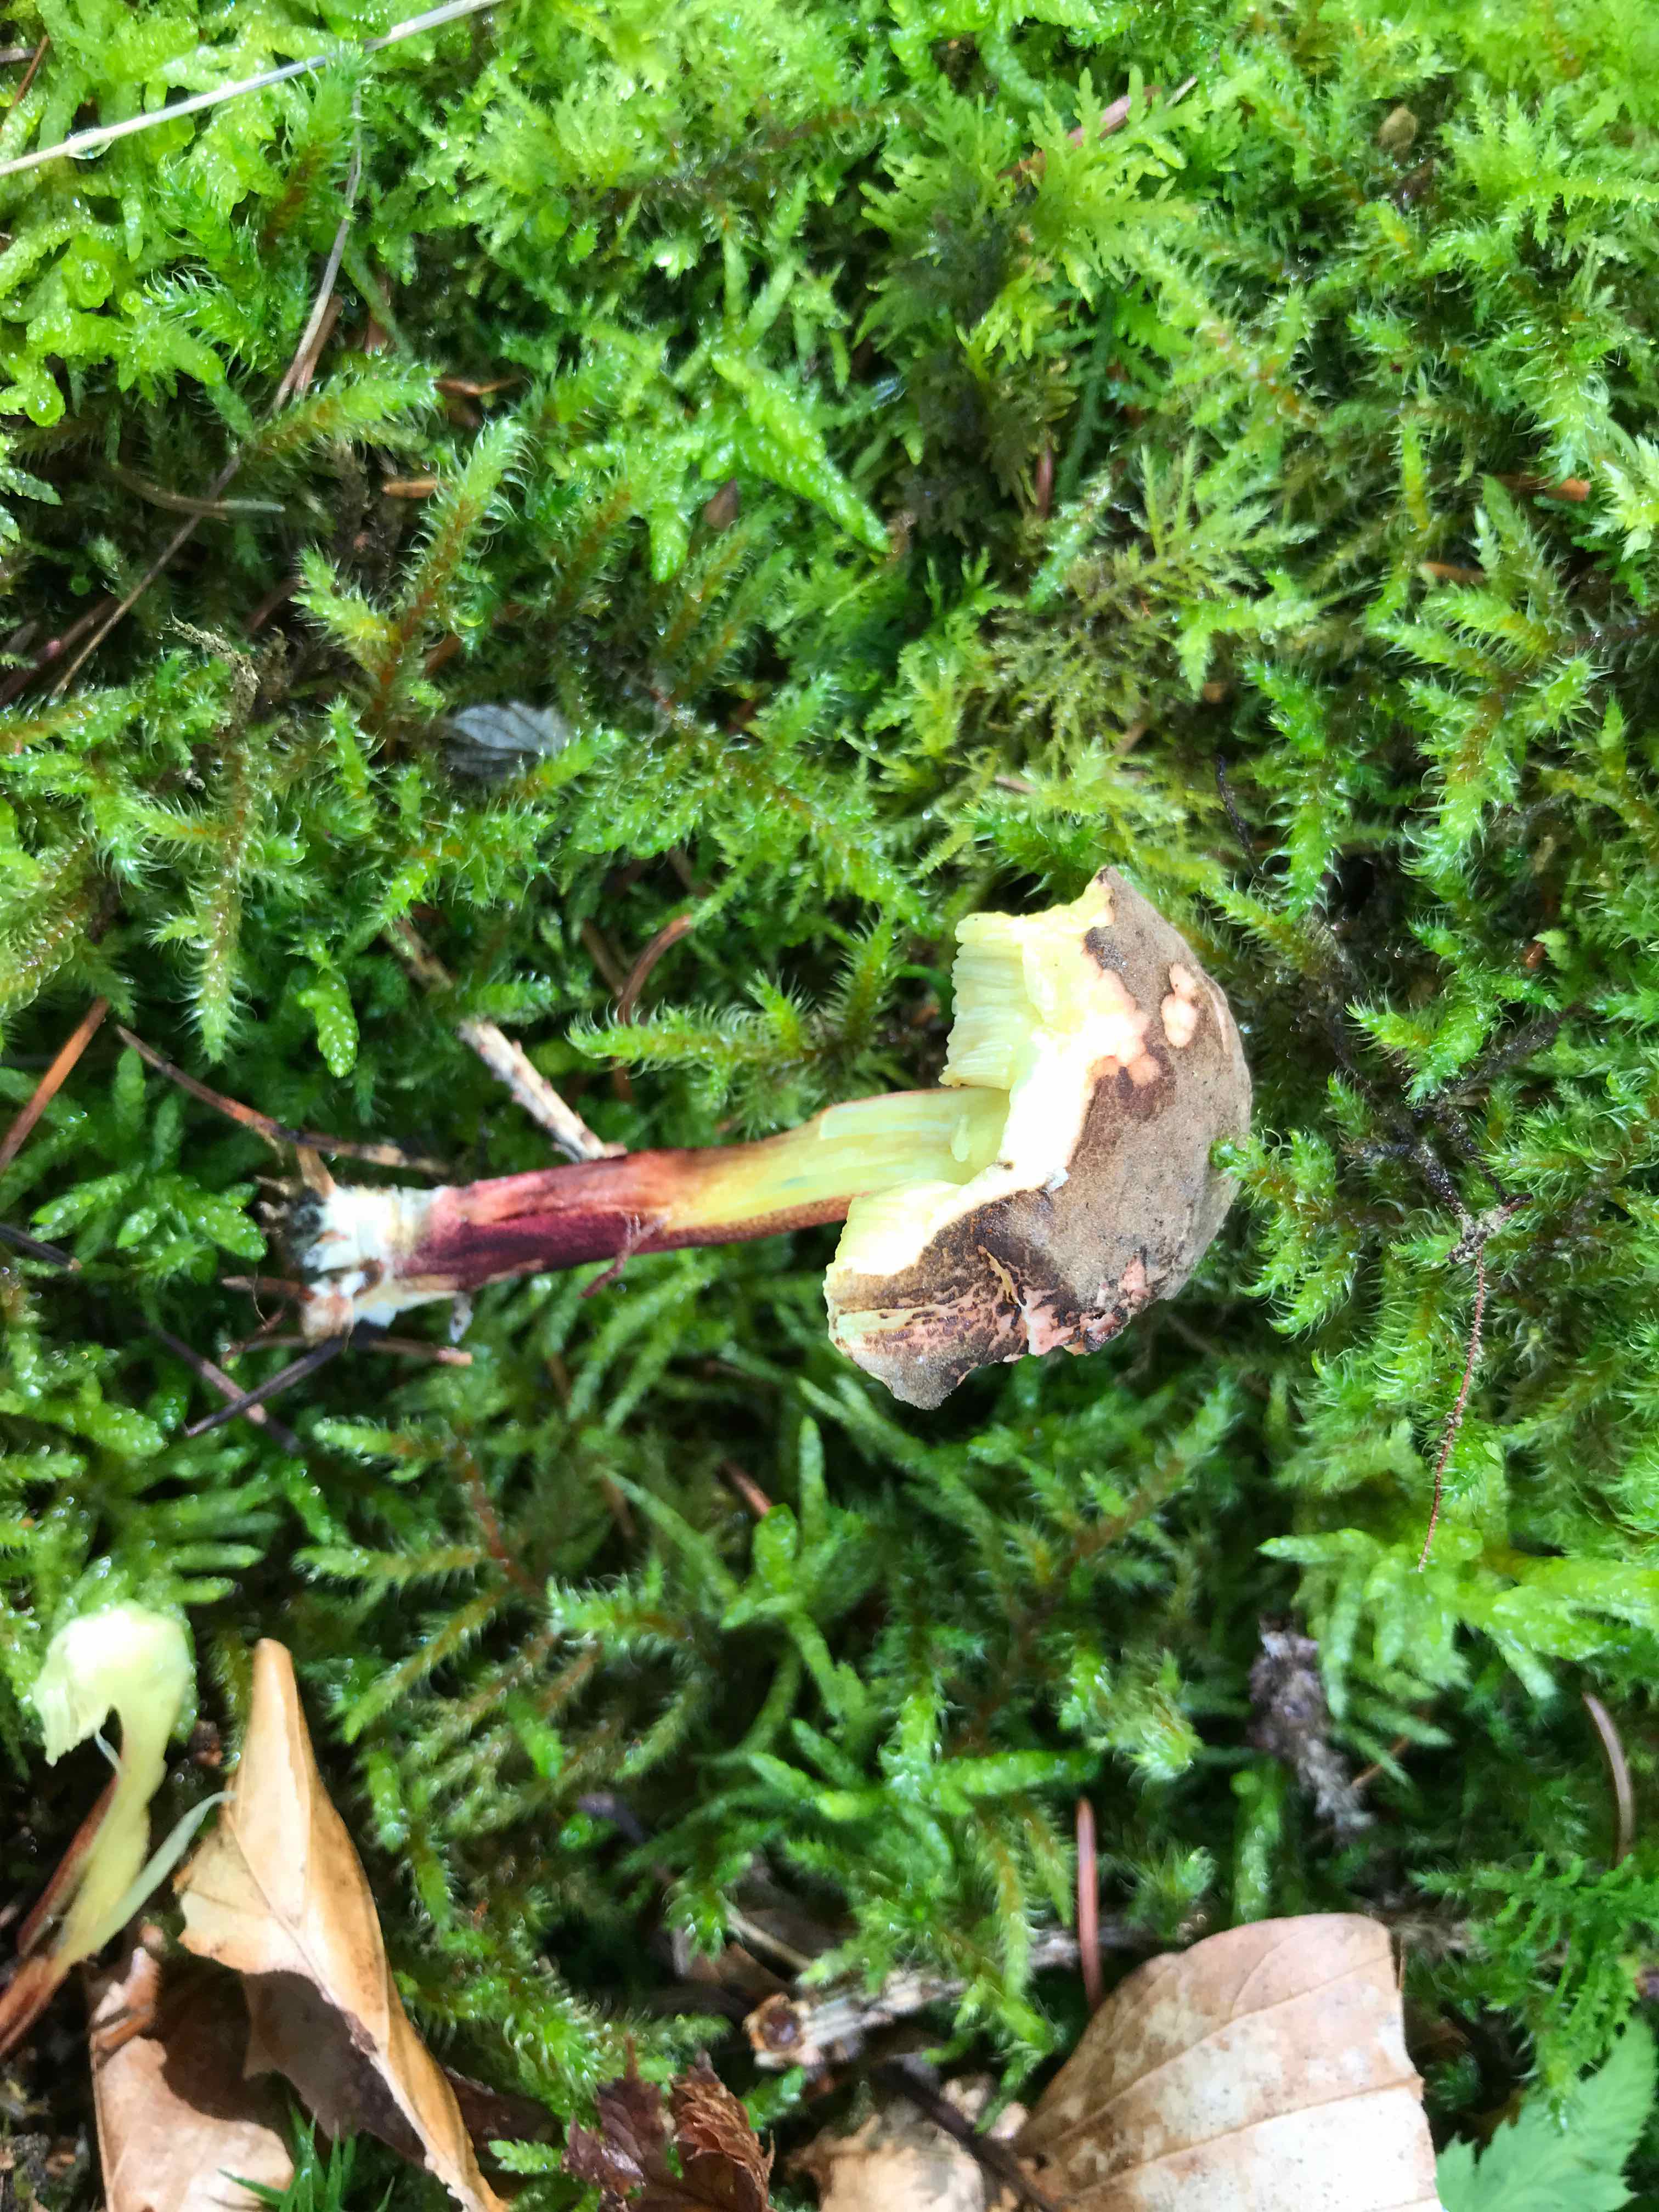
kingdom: Fungi
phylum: Basidiomycota
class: Agaricomycetes
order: Boletales
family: Boletaceae
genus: Xerocomellus
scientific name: Xerocomellus chrysenteron
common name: rødsprukken rørhat
